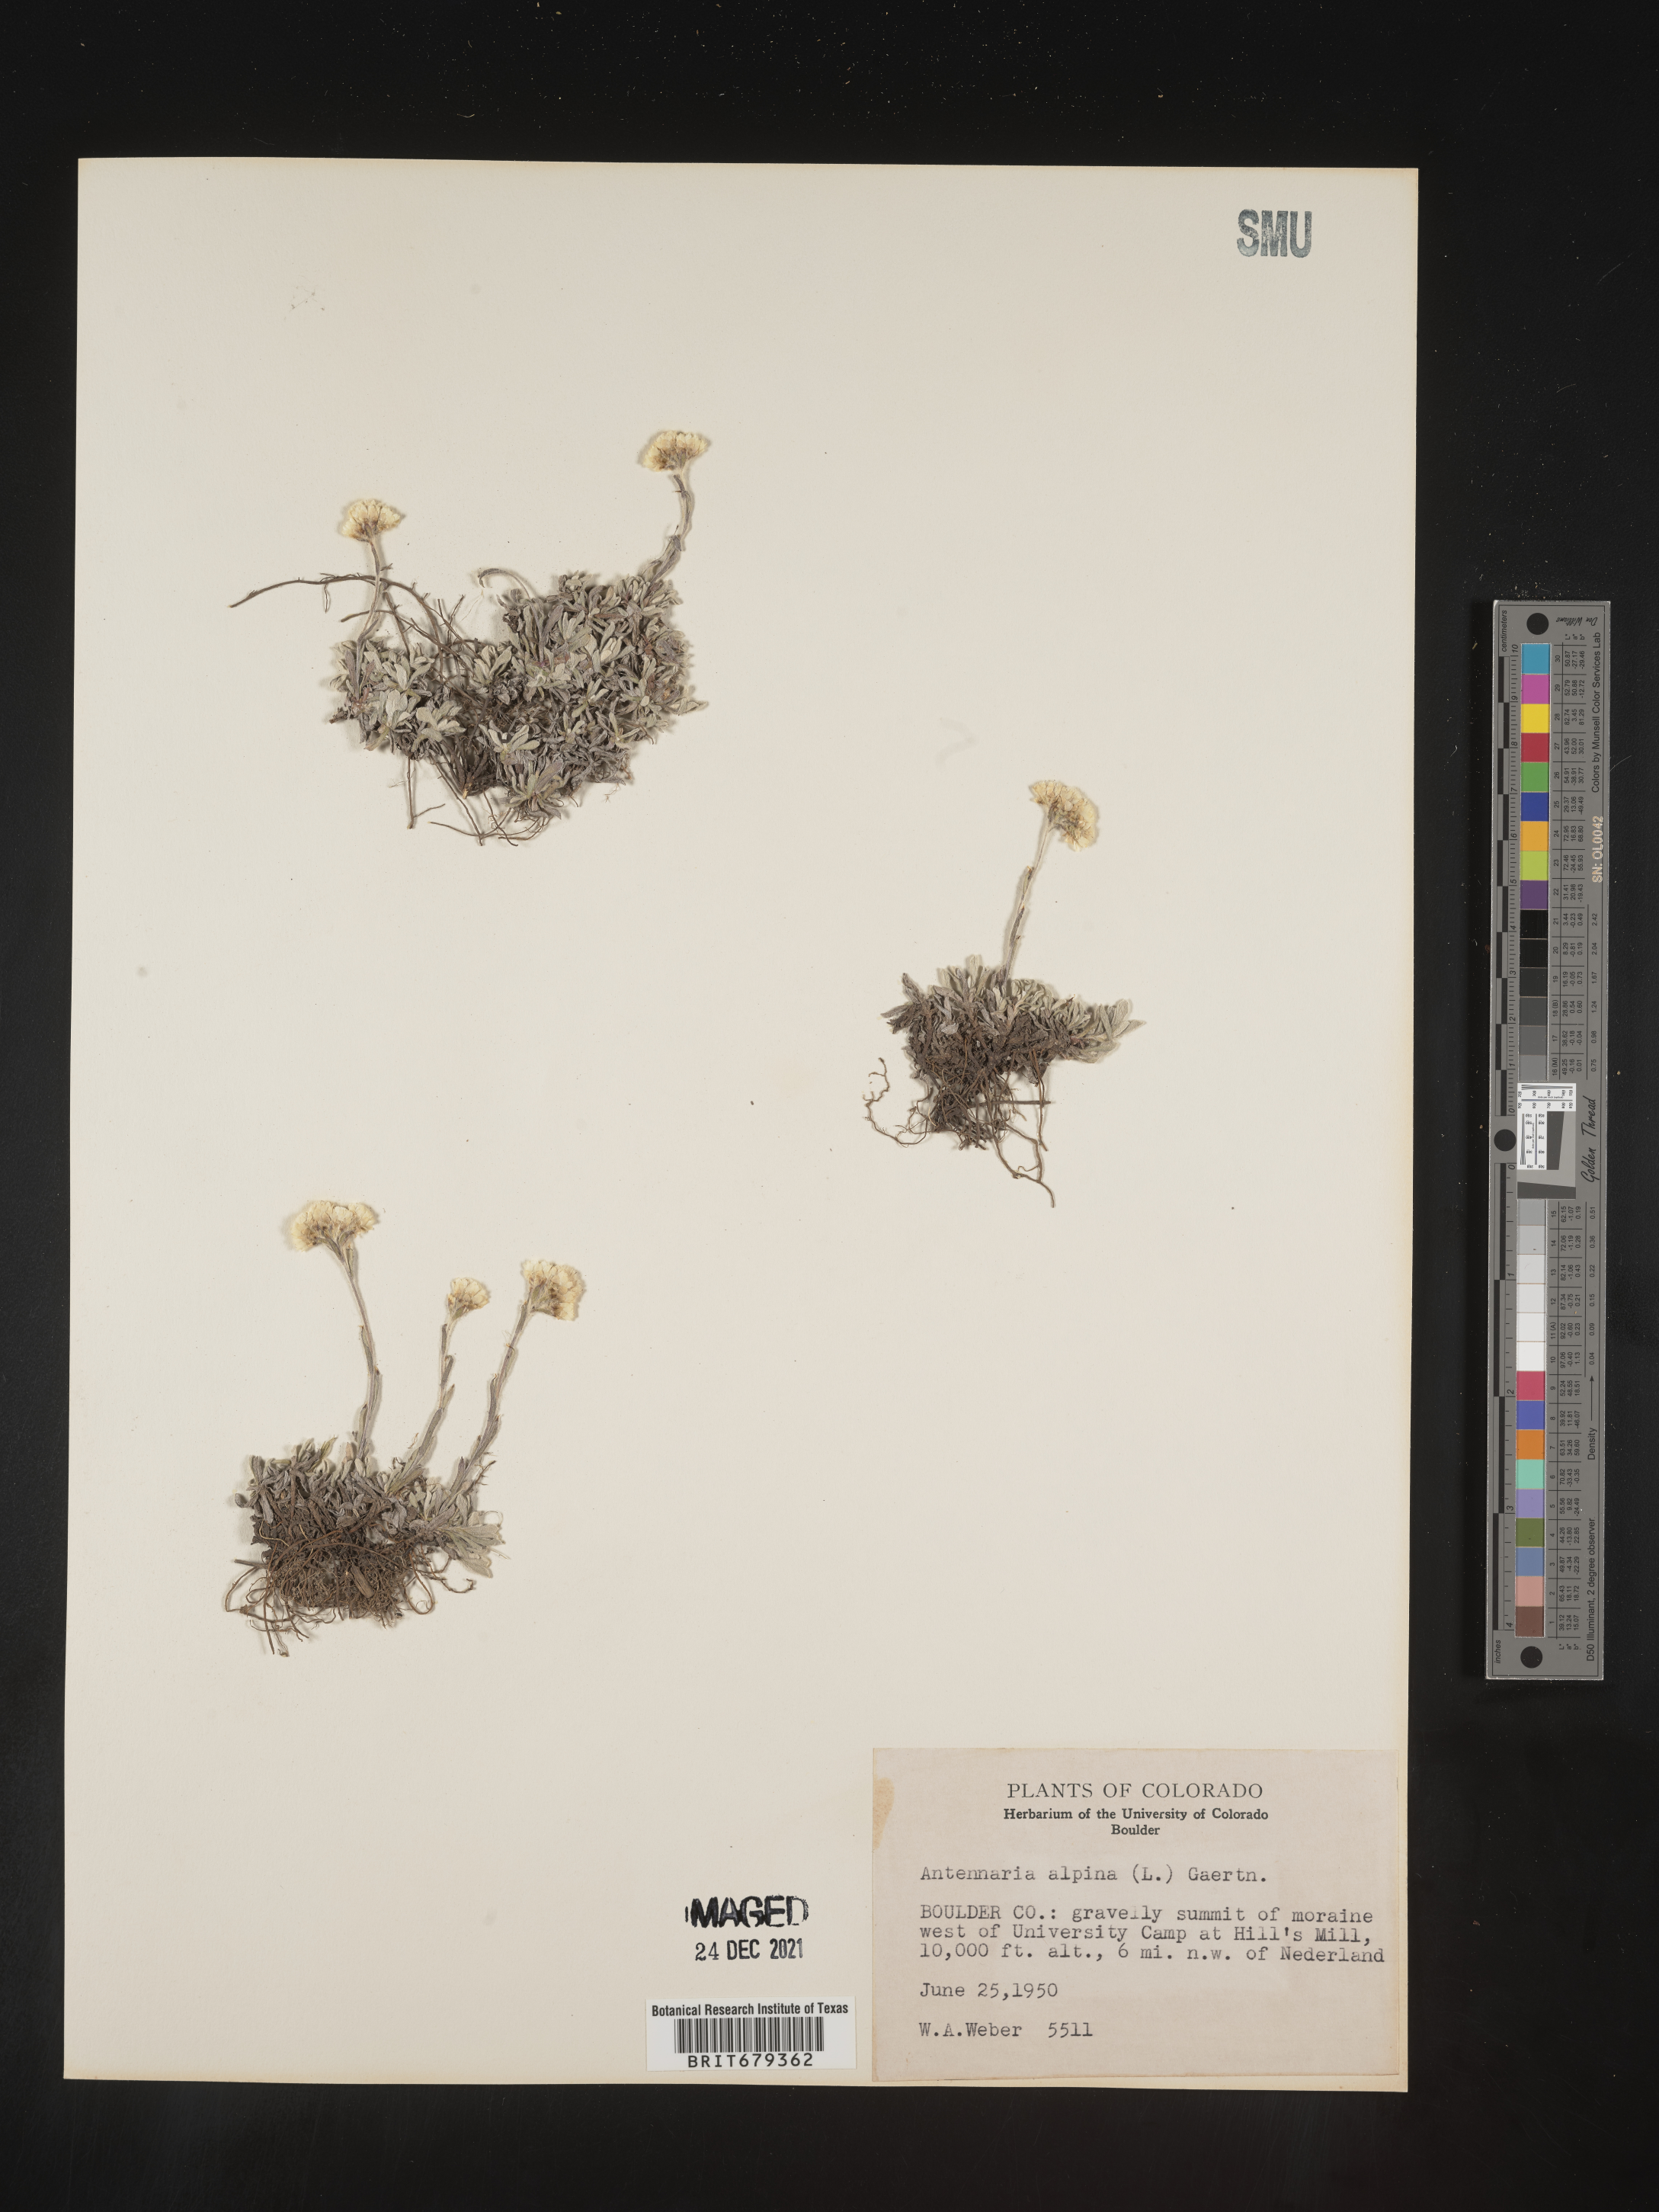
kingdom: Plantae
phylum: Tracheophyta
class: Magnoliopsida
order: Asterales
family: Asteraceae
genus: Antennaria
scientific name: Antennaria corymbosa
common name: Meadow pussytoes
